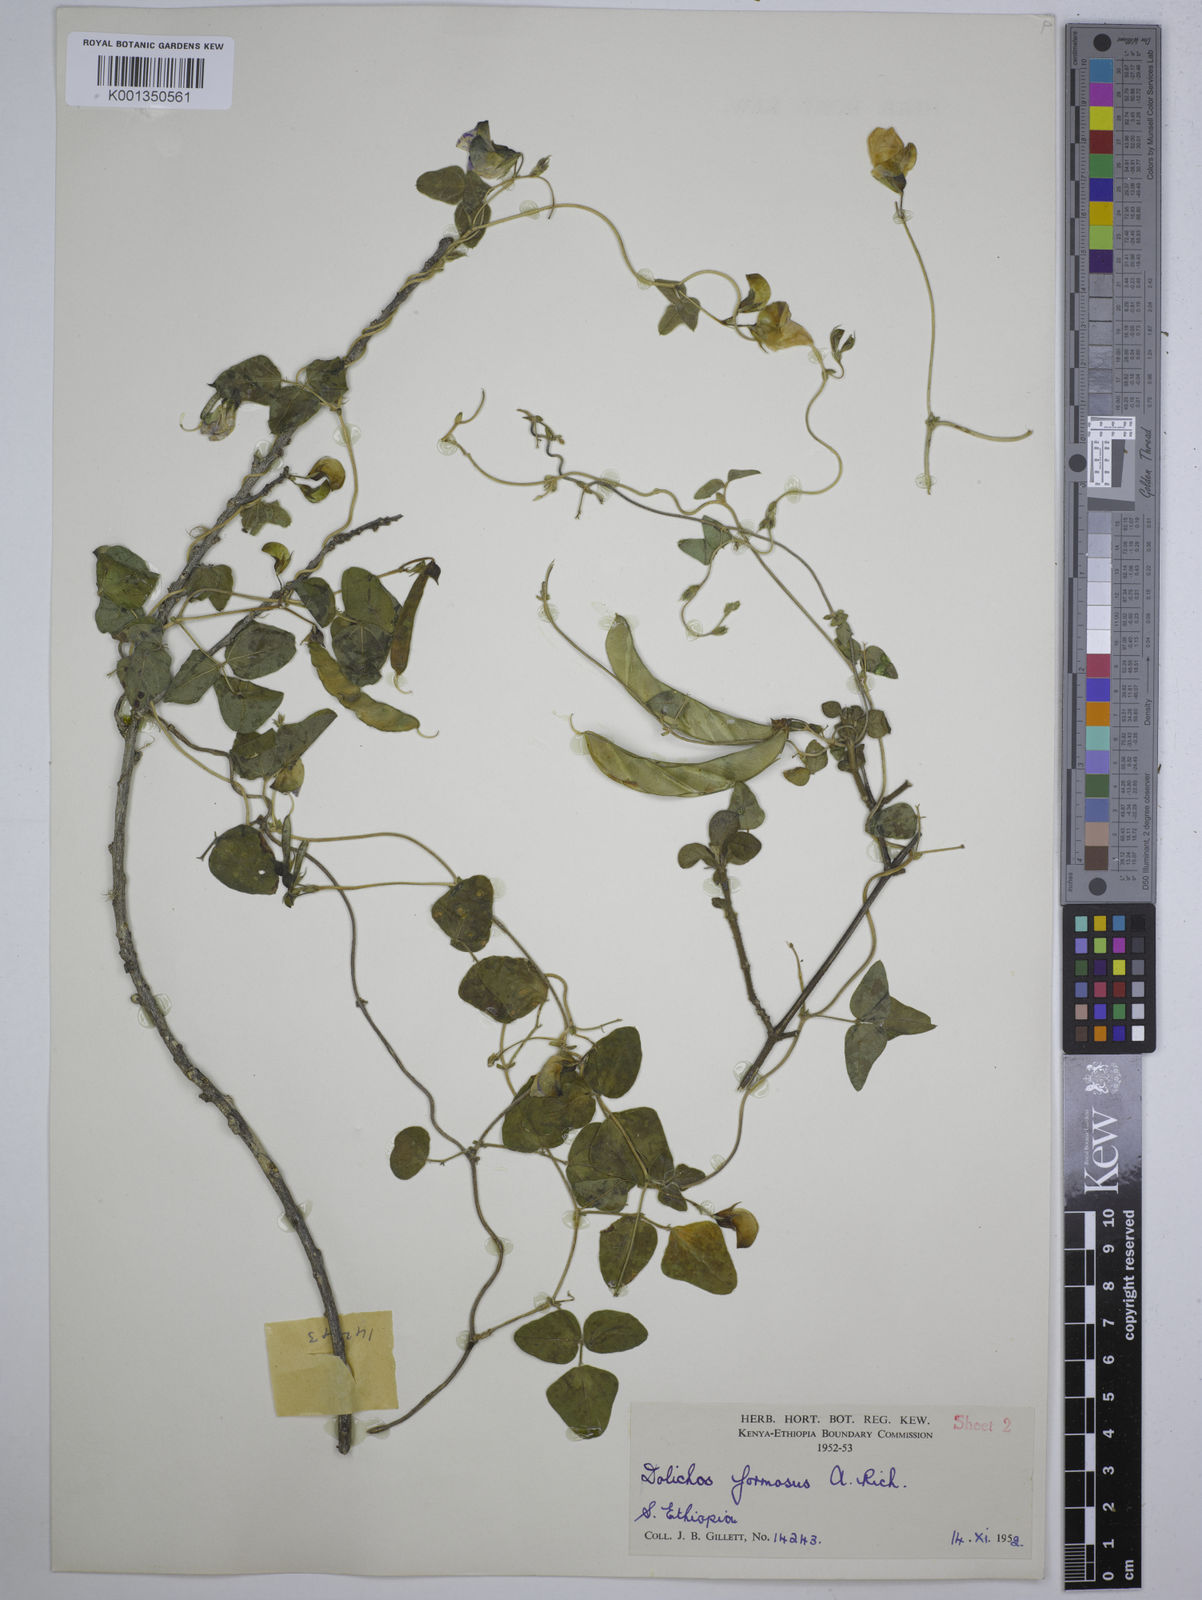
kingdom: Plantae
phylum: Tracheophyta
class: Magnoliopsida
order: Fabales
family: Fabaceae
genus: Dolichos
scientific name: Dolichos
